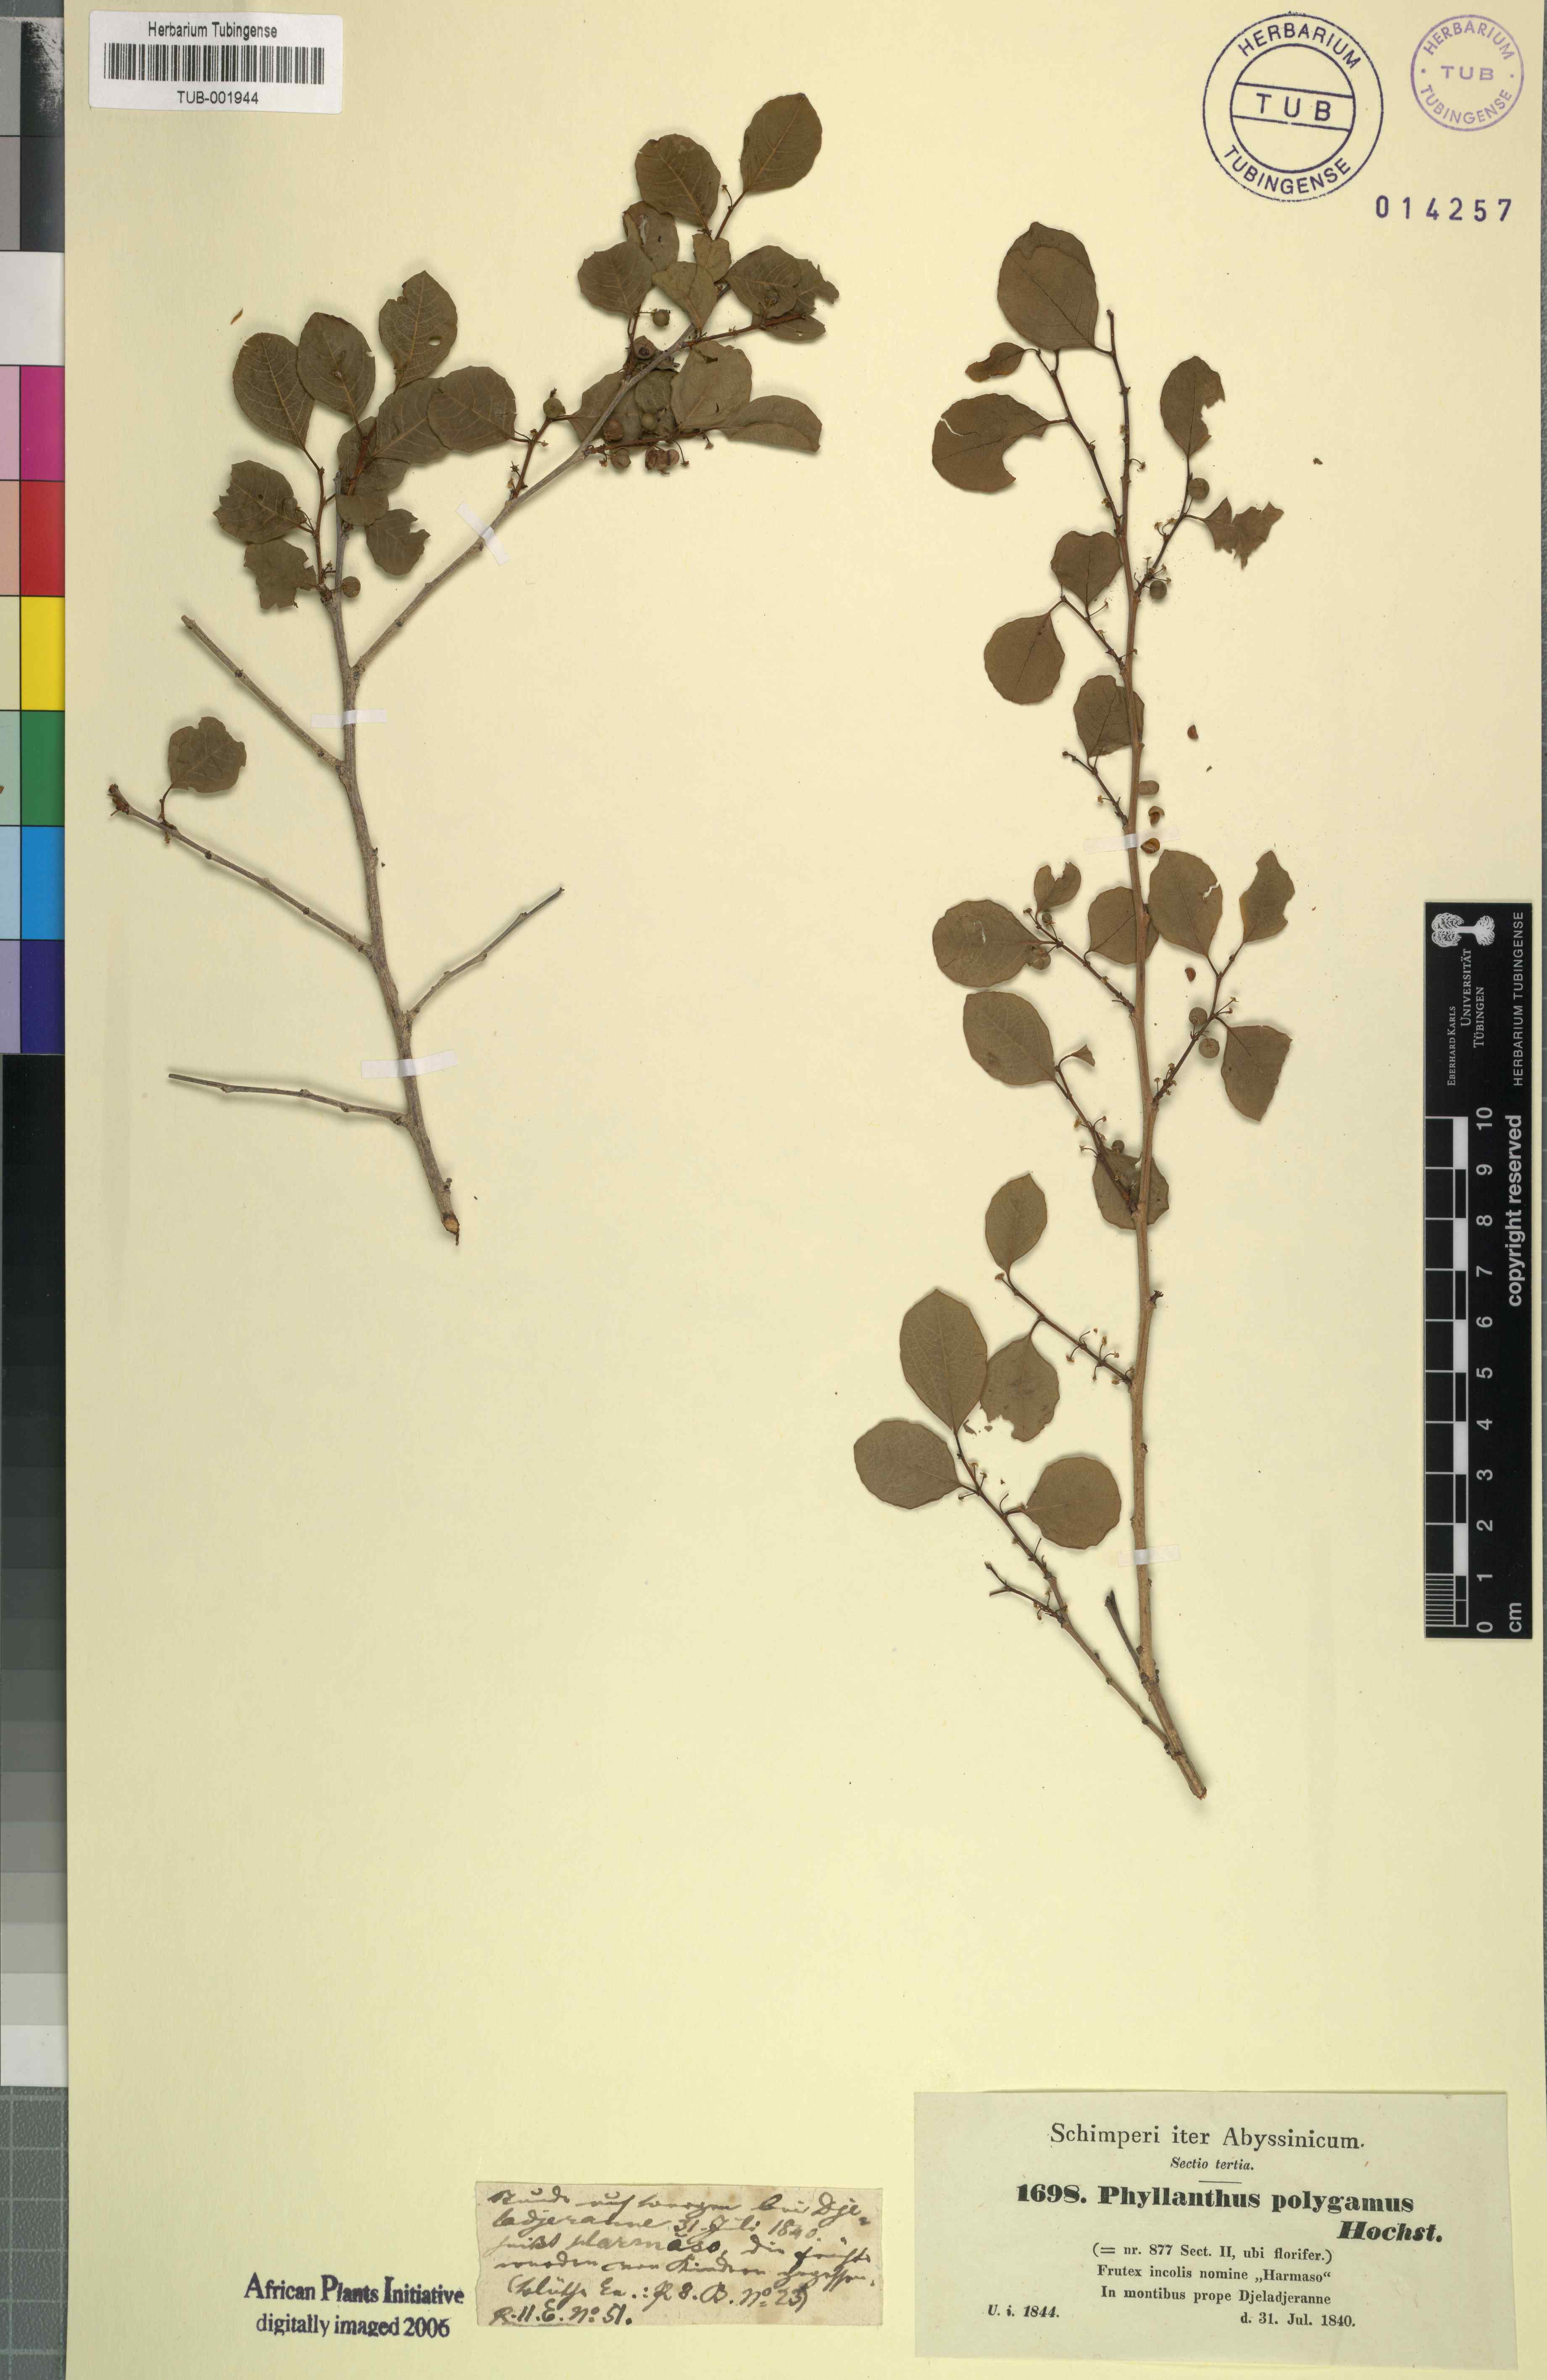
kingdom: Plantae
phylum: Tracheophyta
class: Magnoliopsida
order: Malpighiales
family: Phyllanthaceae
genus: Flueggea
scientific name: Flueggea virosa
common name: Common bushweed
